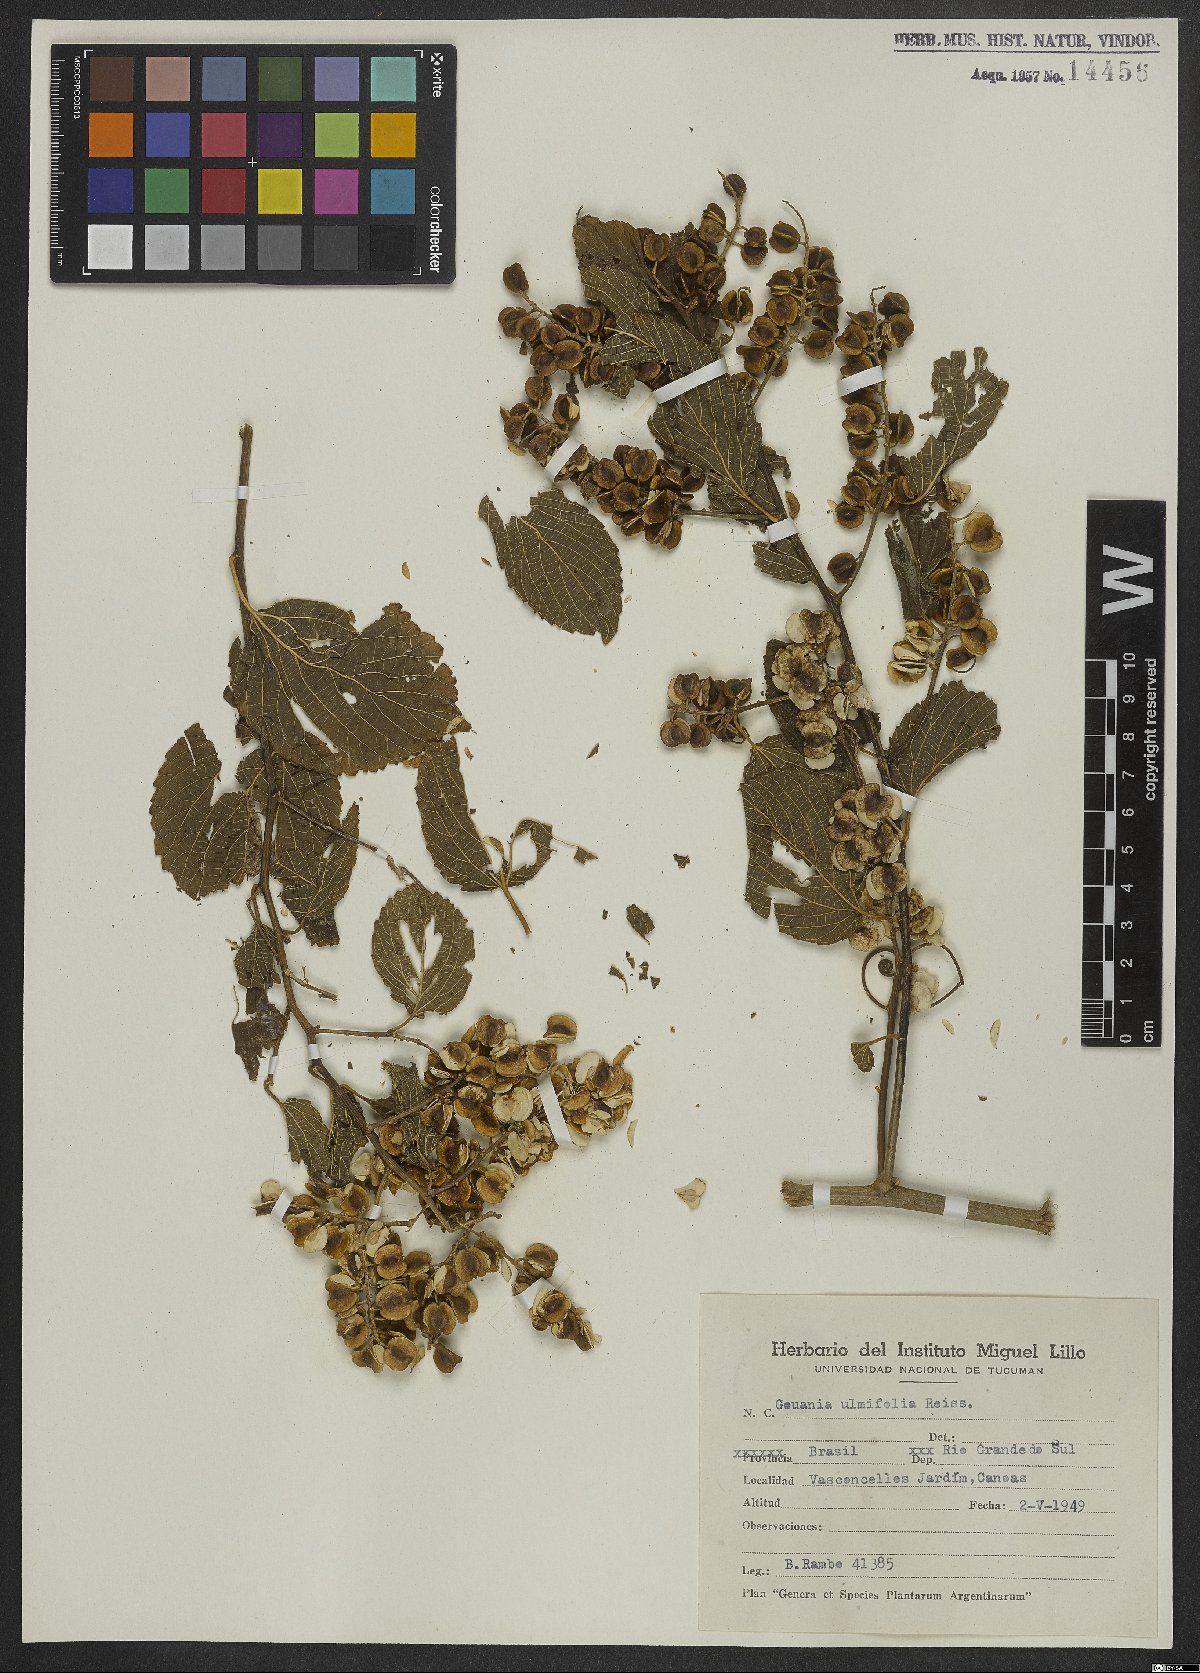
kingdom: Plantae
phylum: Tracheophyta
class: Magnoliopsida
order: Rosales
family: Rhamnaceae
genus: Gouania
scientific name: Gouania ulmifolia
